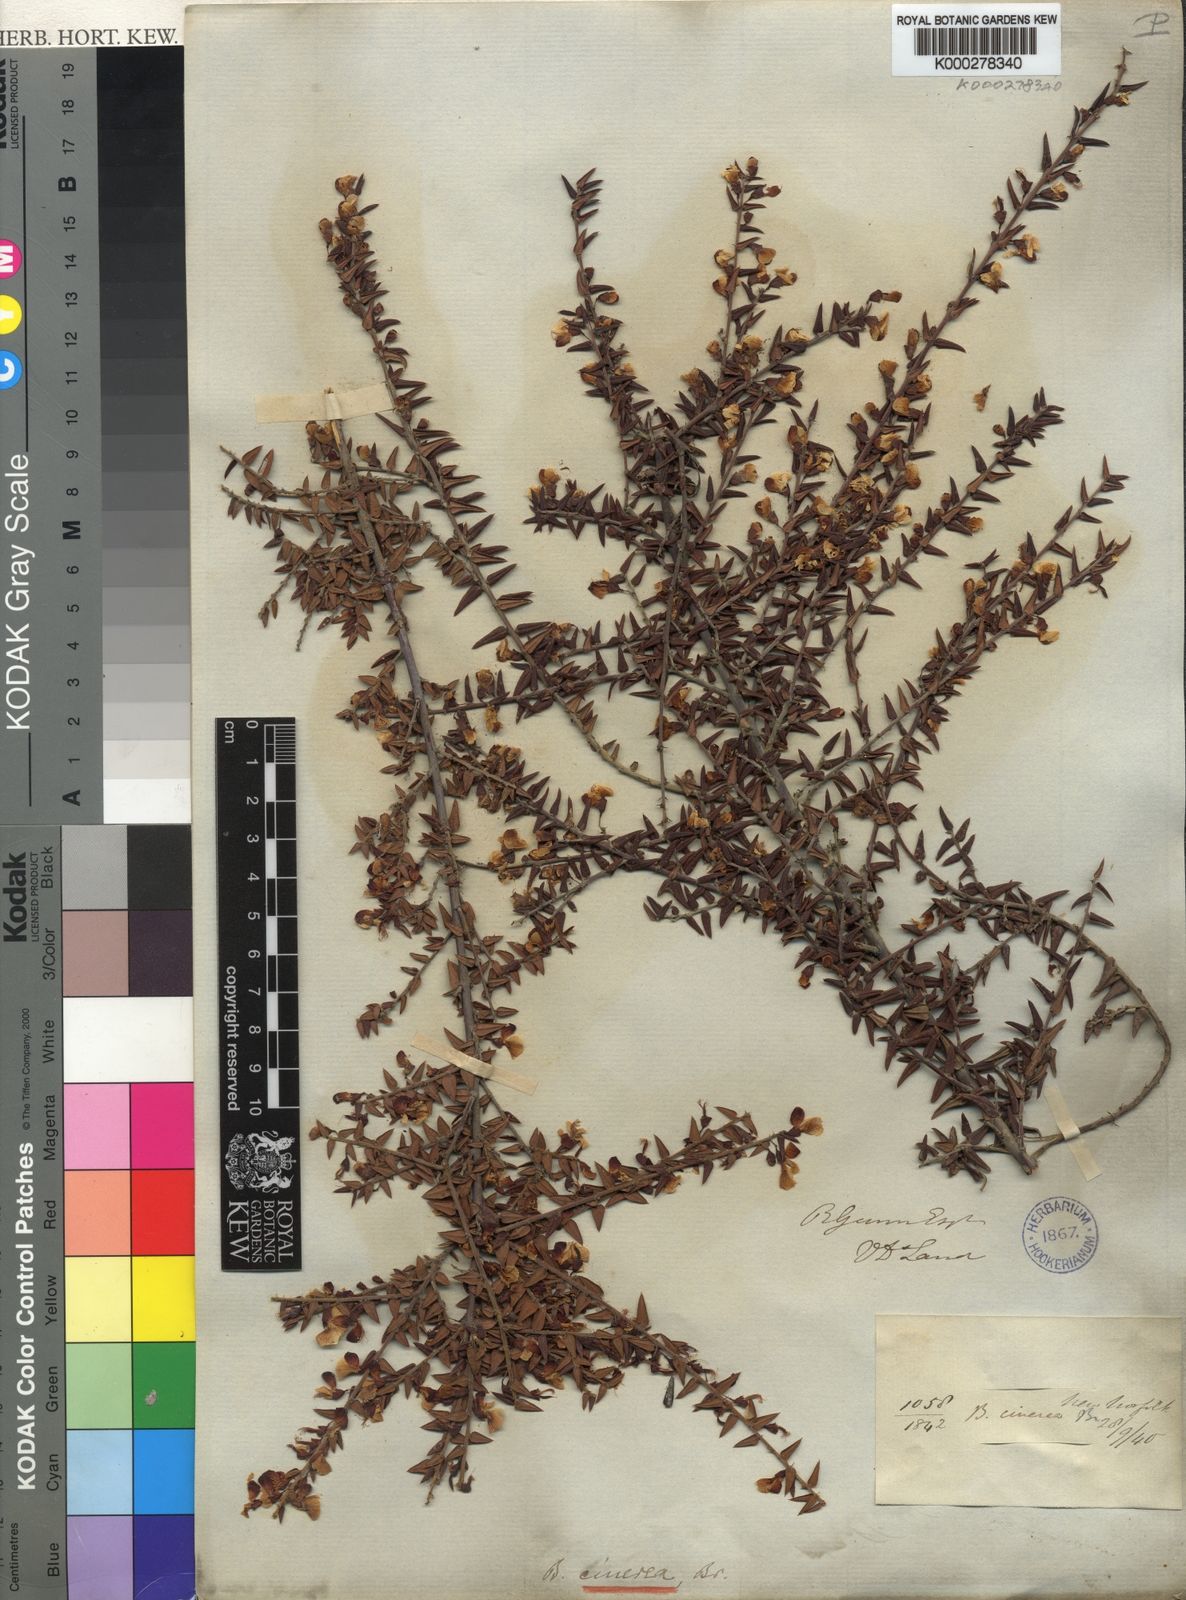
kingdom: Plantae
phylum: Tracheophyta
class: Magnoliopsida
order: Fabales
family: Fabaceae
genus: Bossiaea
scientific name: Bossiaea cinerea
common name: Showy bossiaea
